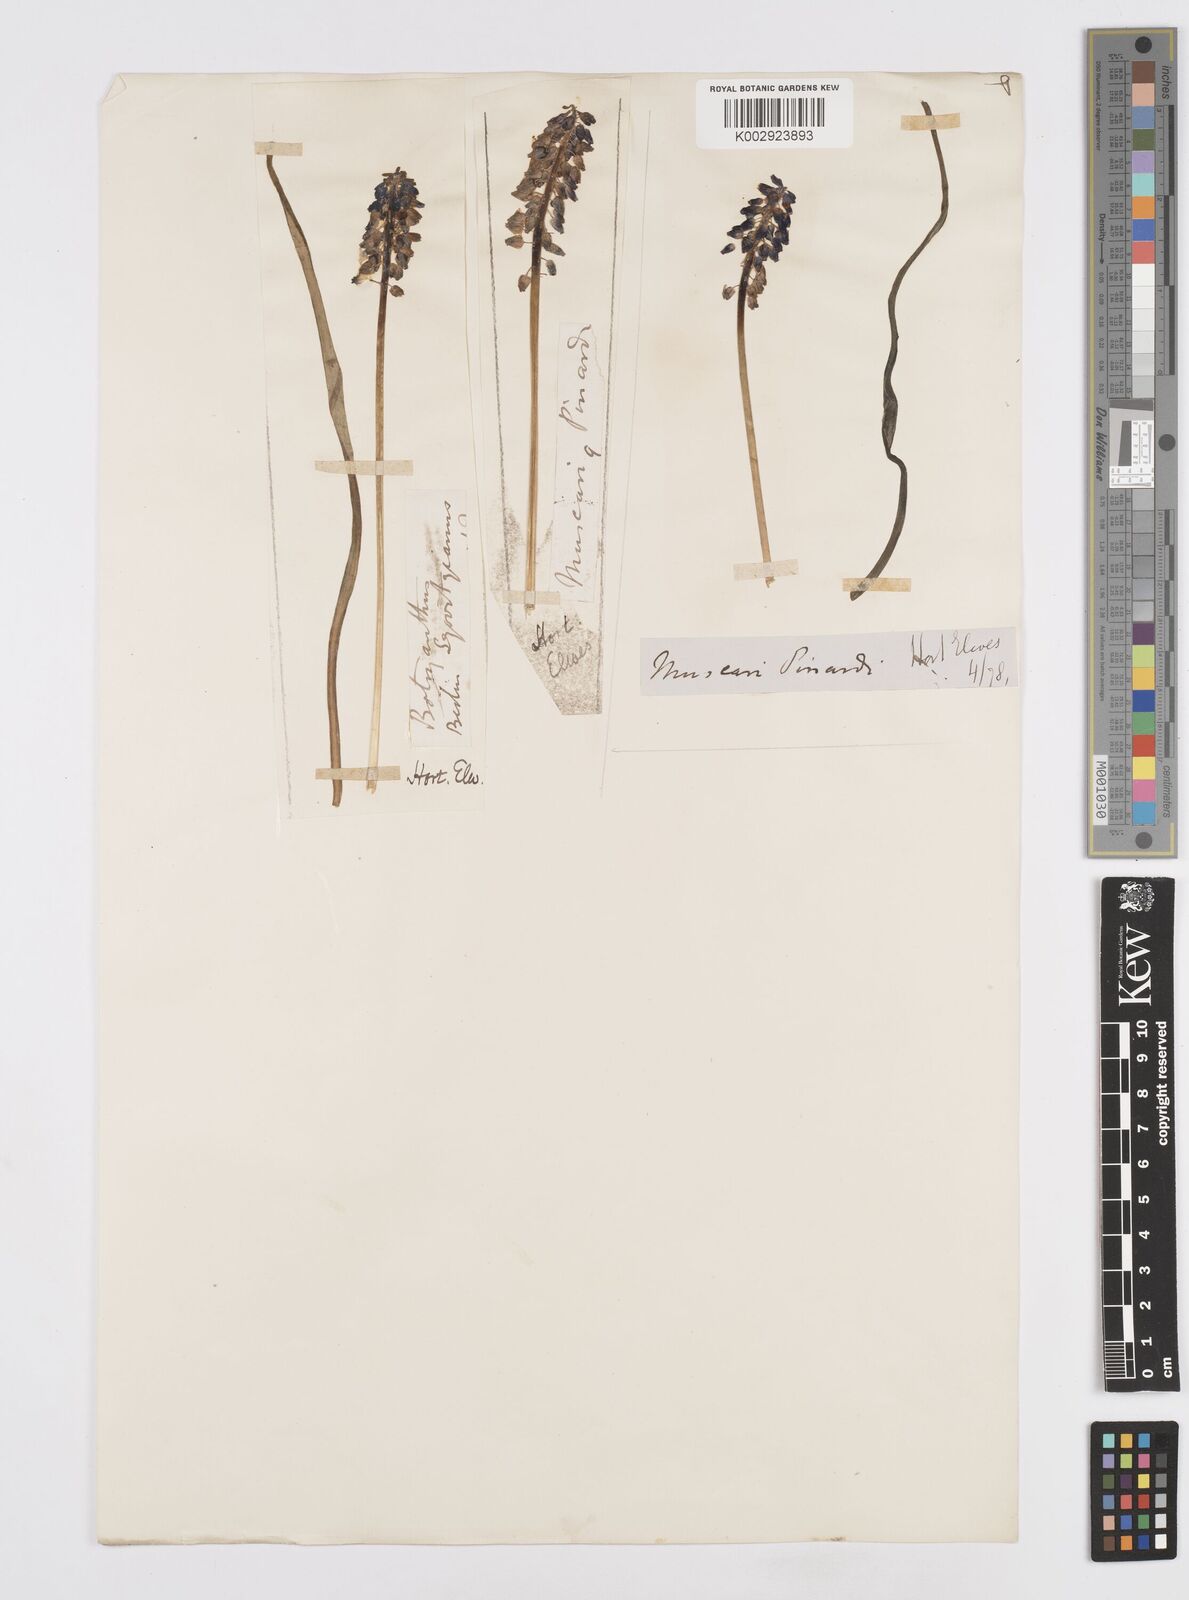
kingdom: Plantae
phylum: Tracheophyta
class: Liliopsida
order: Asparagales
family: Asparagaceae
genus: Muscari
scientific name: Muscari
